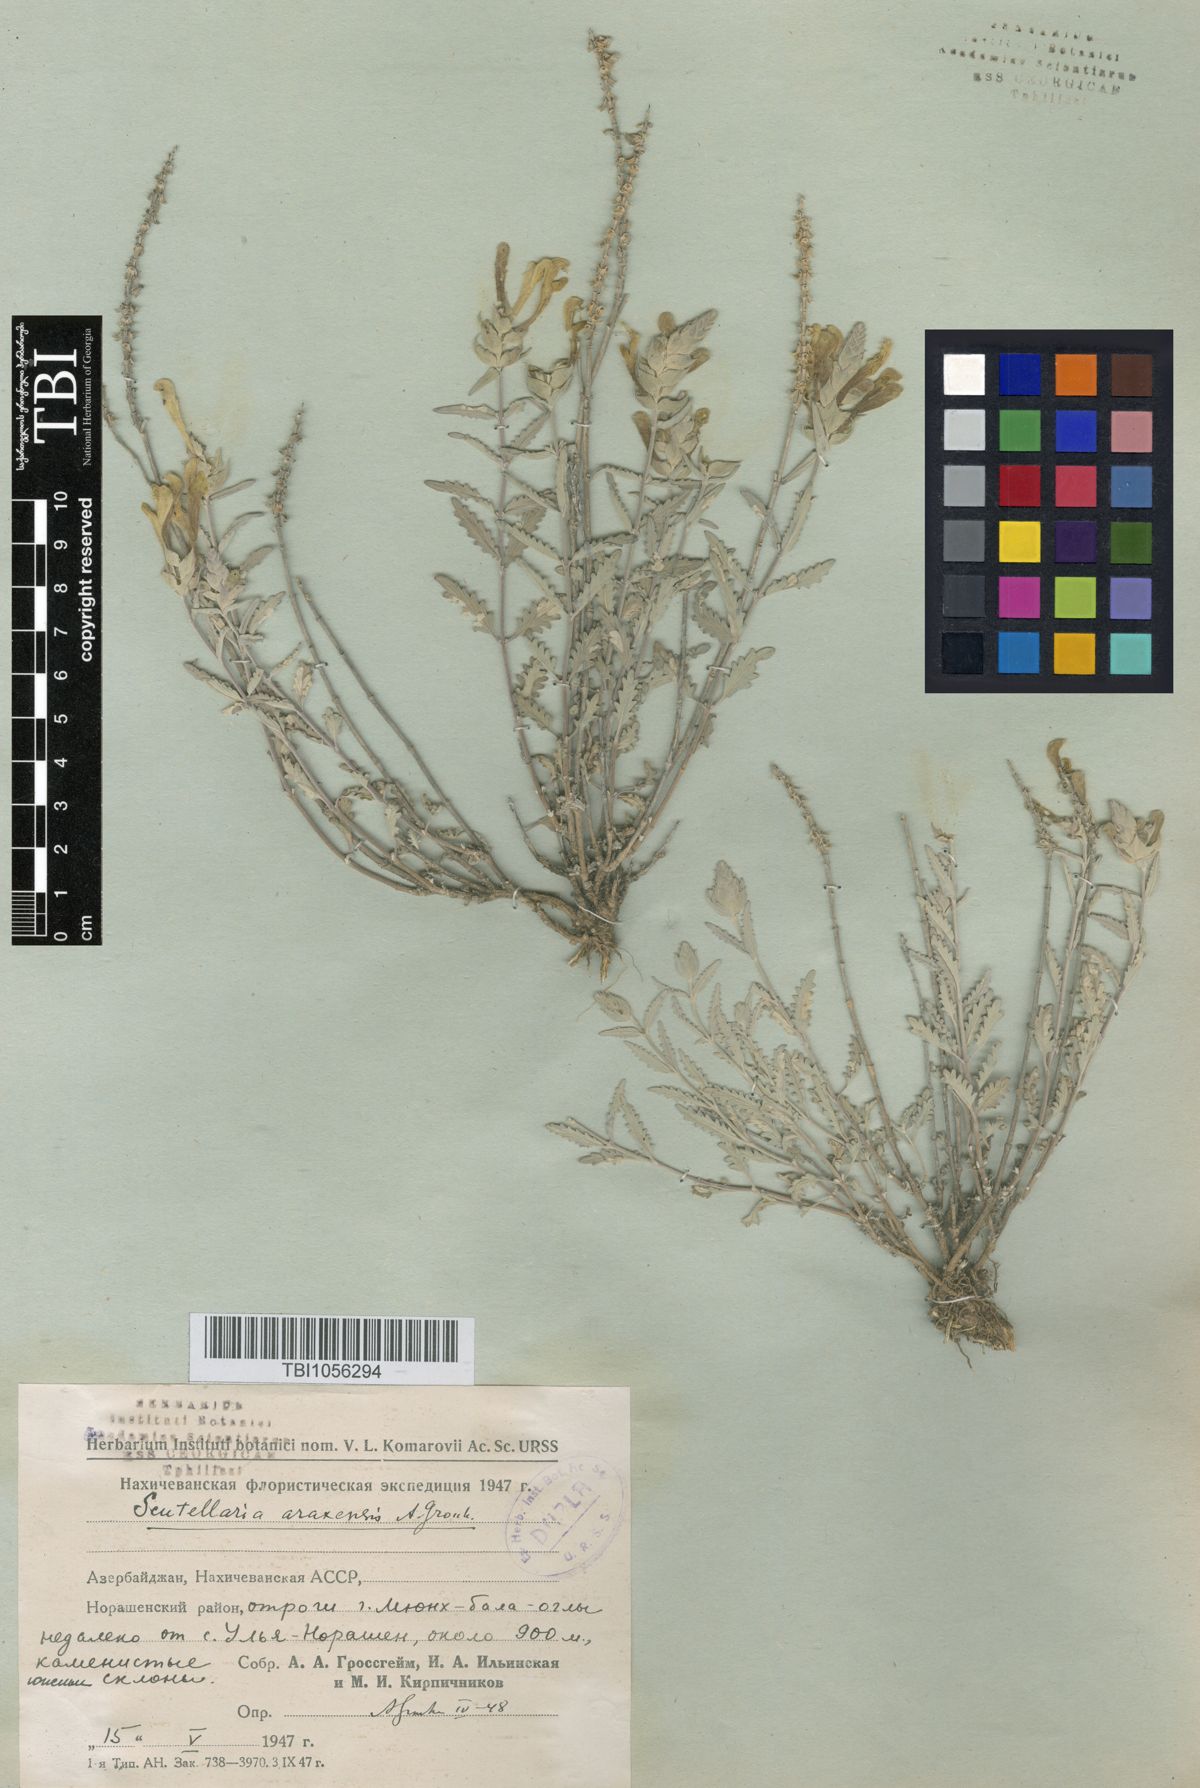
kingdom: Plantae
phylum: Tracheophyta
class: Magnoliopsida
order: Lamiales
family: Lamiaceae
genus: Scutellaria
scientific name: Scutellaria araxensis
